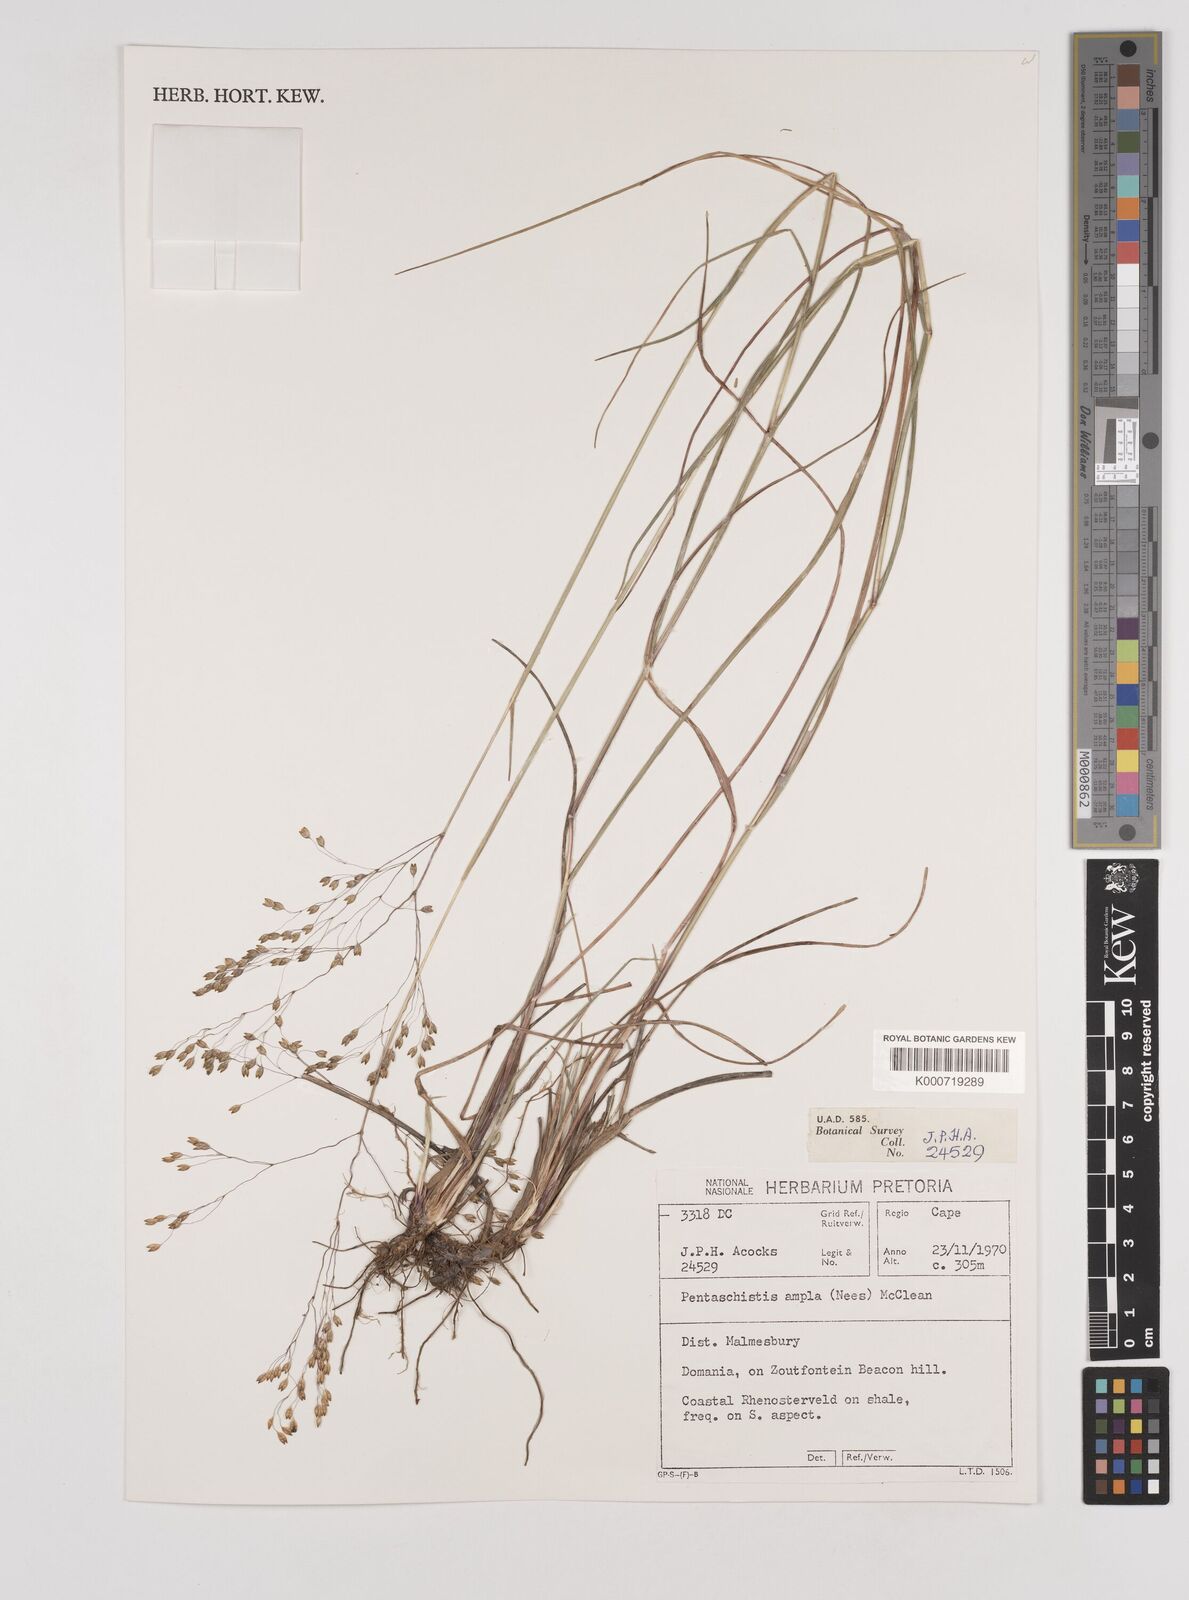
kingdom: Plantae
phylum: Tracheophyta
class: Liliopsida
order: Poales
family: Poaceae
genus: Pentameris
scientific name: Pentameris ampla
